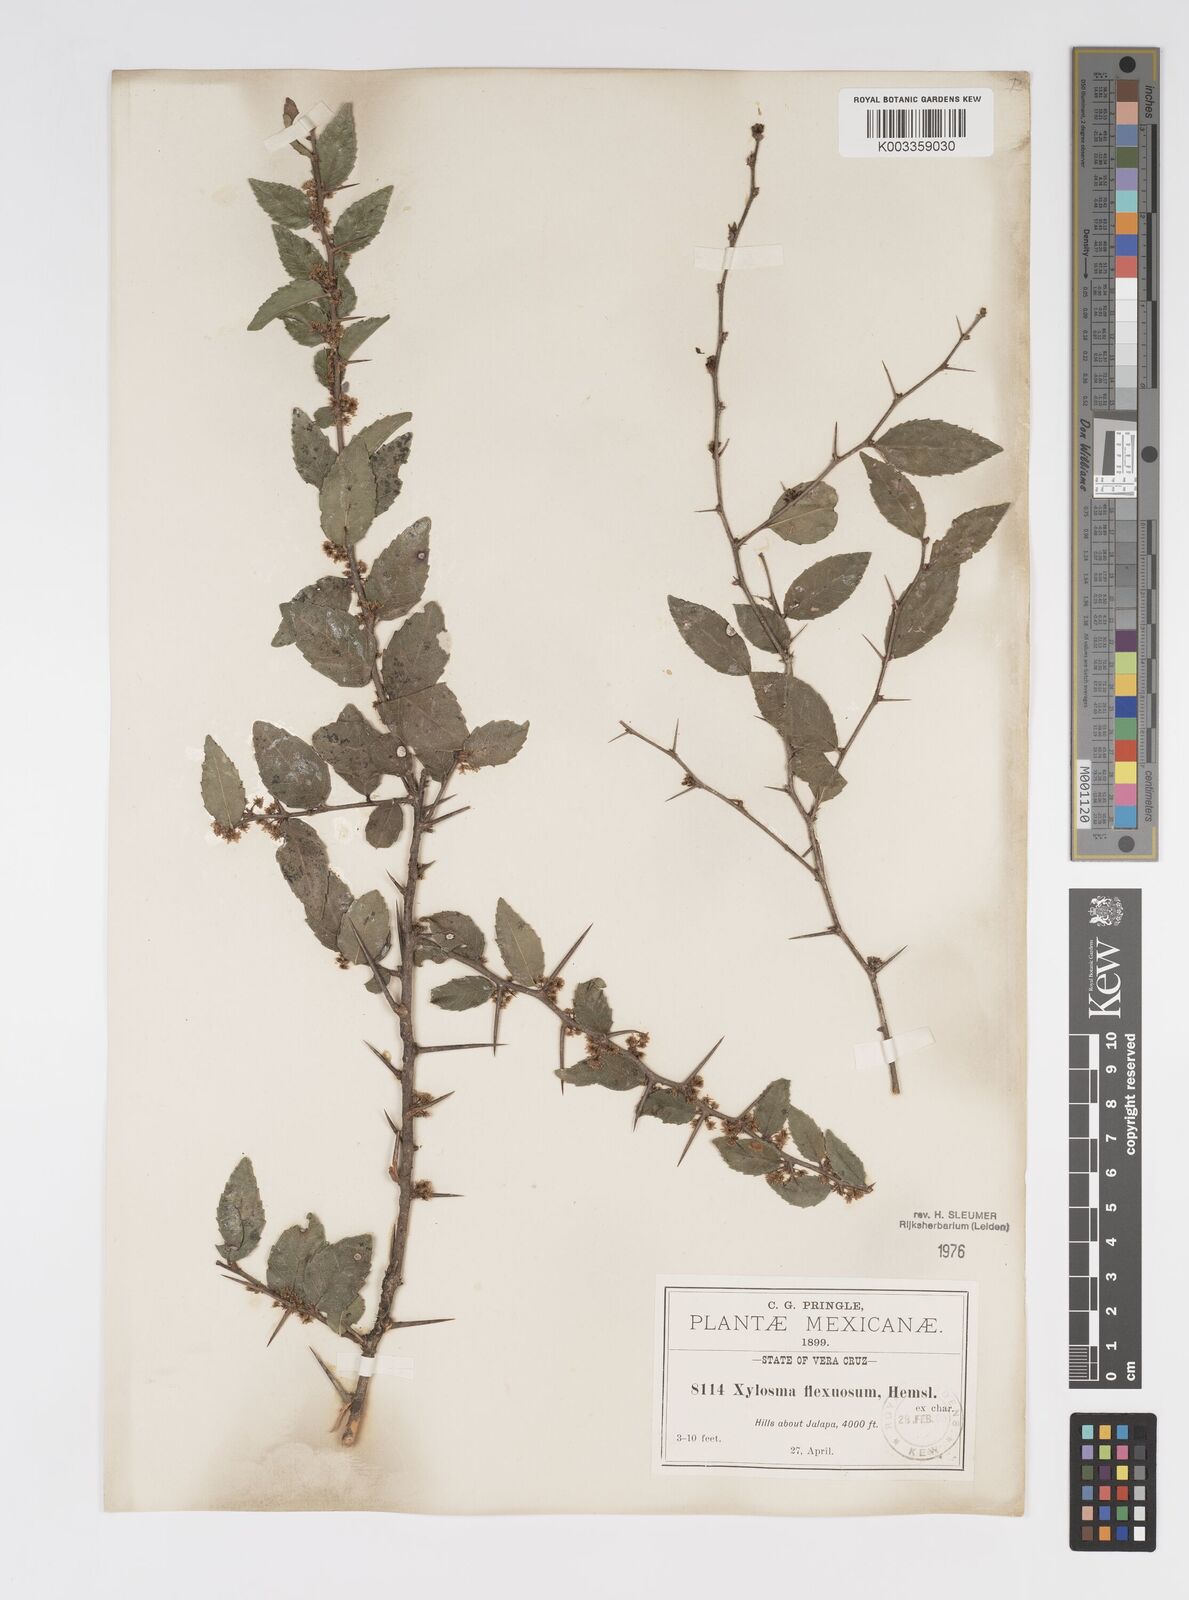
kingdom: Plantae
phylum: Tracheophyta
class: Magnoliopsida
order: Malpighiales
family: Salicaceae
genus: Xylosma
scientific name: Xylosma flexuosa
